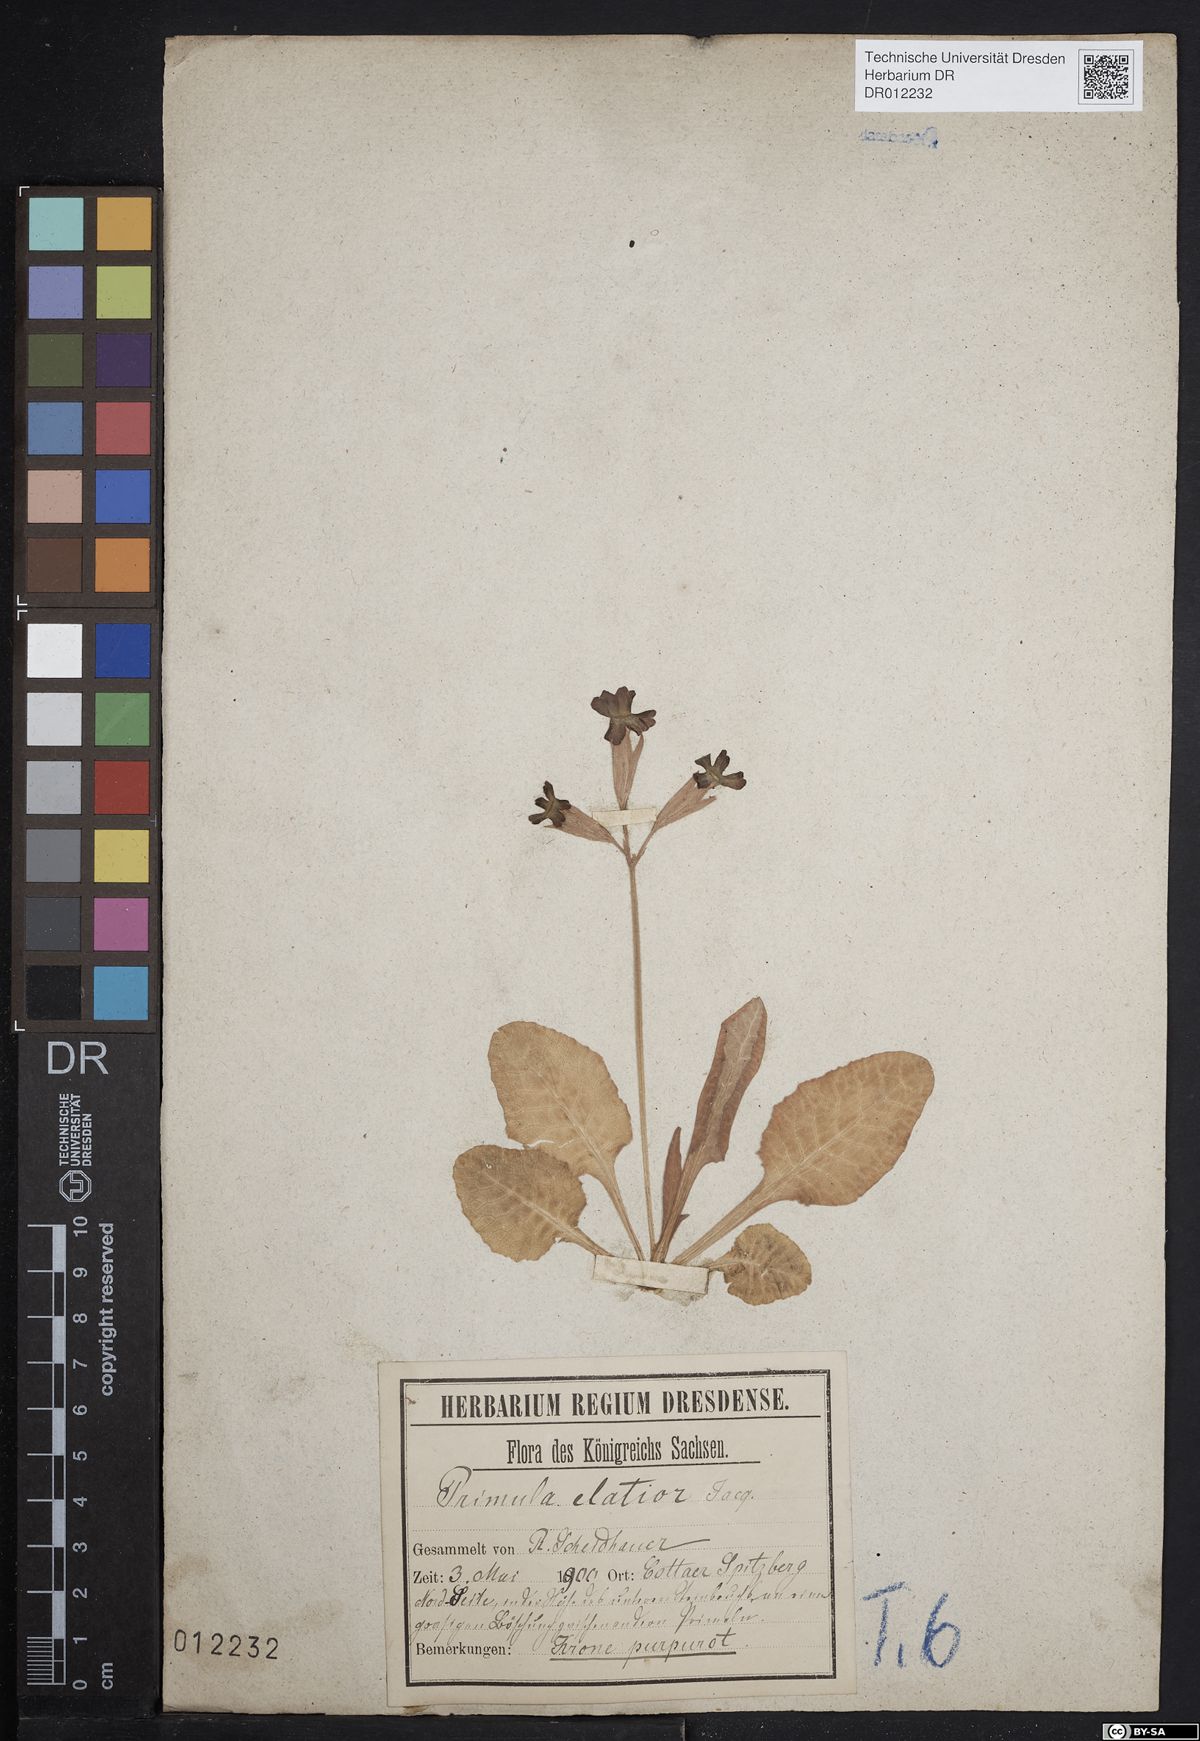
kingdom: Plantae
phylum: Tracheophyta
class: Magnoliopsida
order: Ericales
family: Primulaceae
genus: Primula
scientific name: Primula elatior
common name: Oxlip
